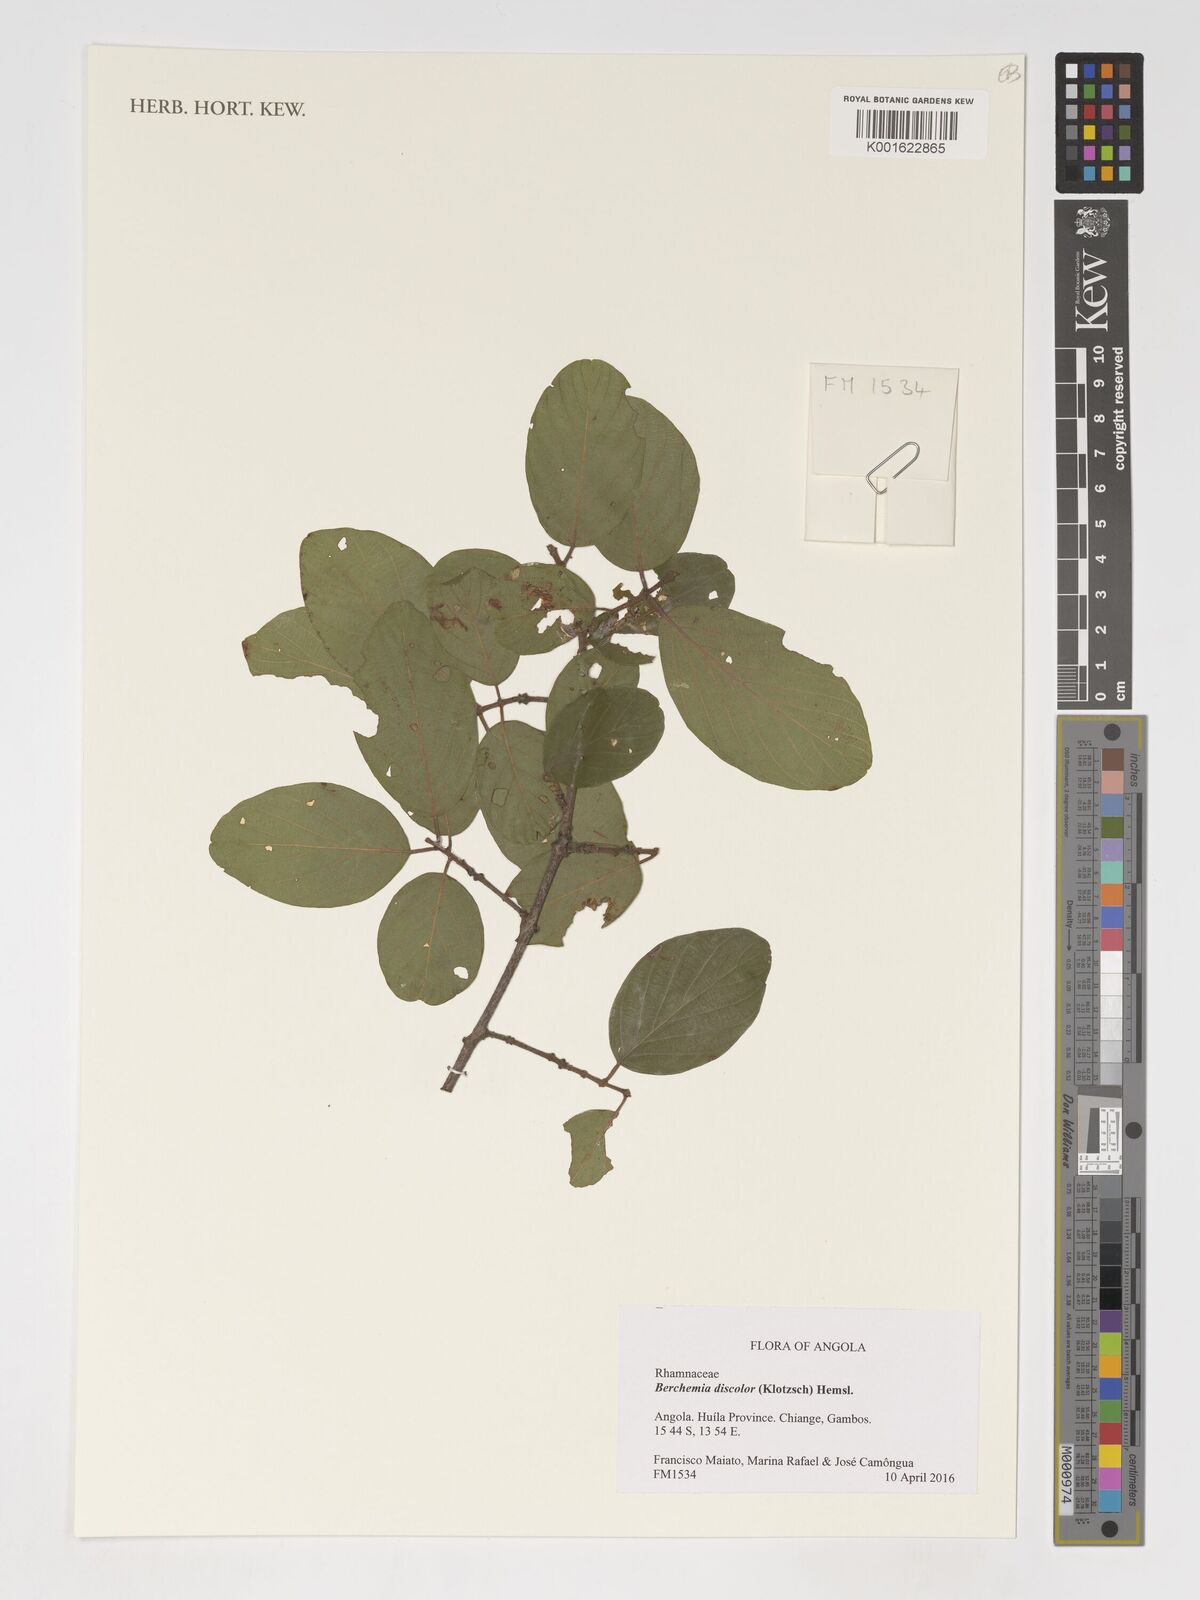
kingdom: Plantae
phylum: Tracheophyta
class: Magnoliopsida
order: Rosales
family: Rhamnaceae
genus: Phyllogeiton
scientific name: Phyllogeiton discolor
